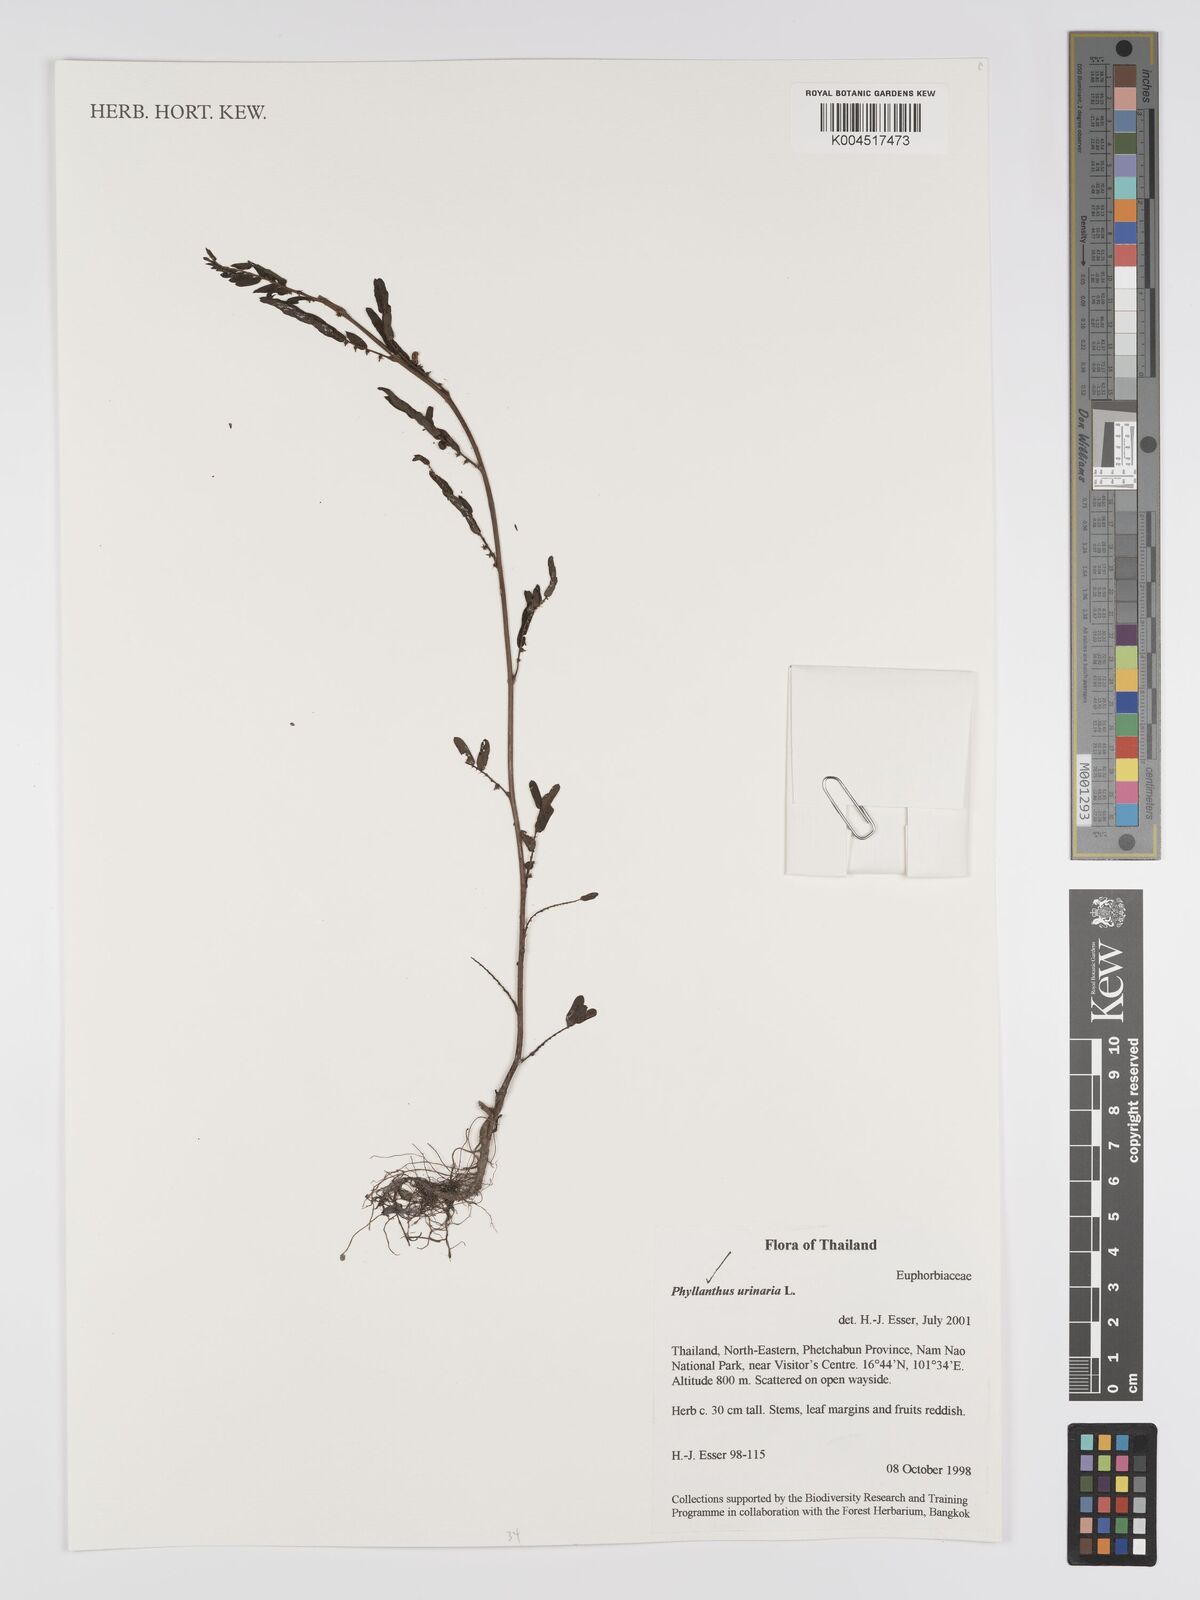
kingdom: Plantae
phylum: Tracheophyta
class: Magnoliopsida
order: Malpighiales
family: Phyllanthaceae
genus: Phyllanthus
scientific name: Phyllanthus urinaria
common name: Chamber bitter
